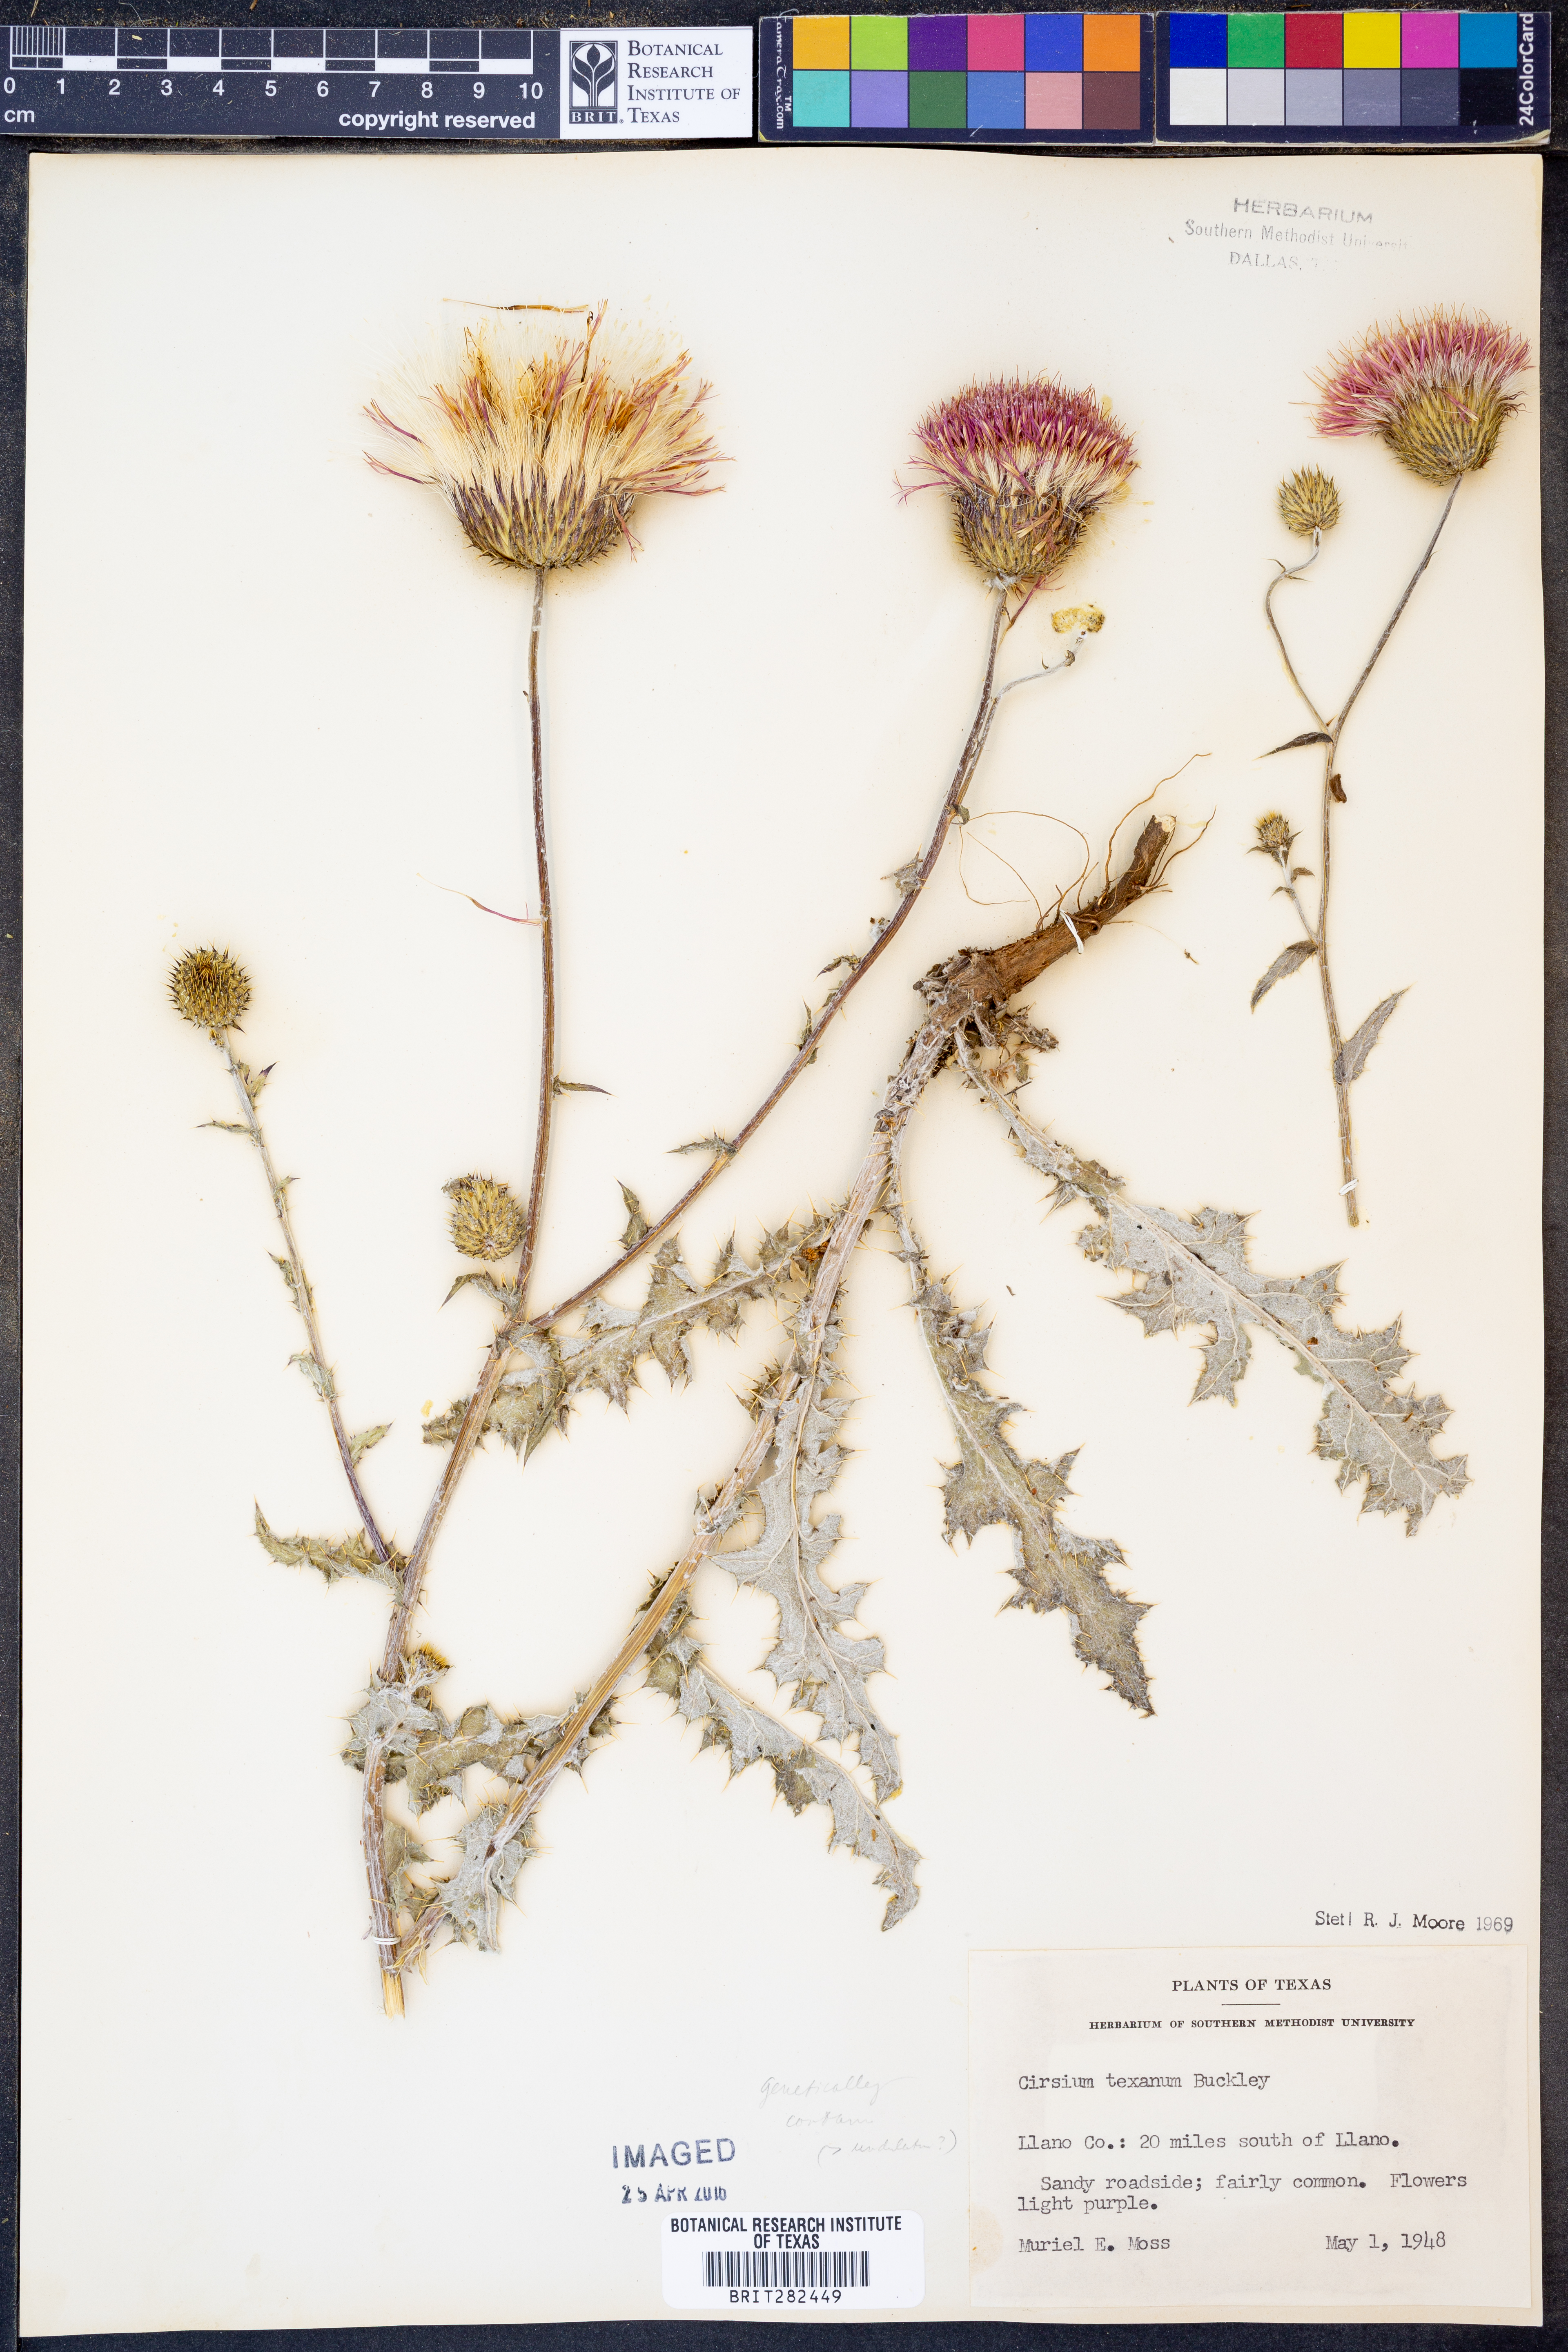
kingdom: Plantae
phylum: Tracheophyta
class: Magnoliopsida
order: Asterales
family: Asteraceae
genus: Cirsium
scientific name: Cirsium texanum
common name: Texas purple thistle
